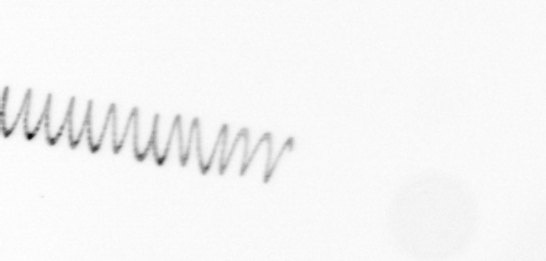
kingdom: Chromista
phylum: Ochrophyta
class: Bacillariophyceae
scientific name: Bacillariophyceae
